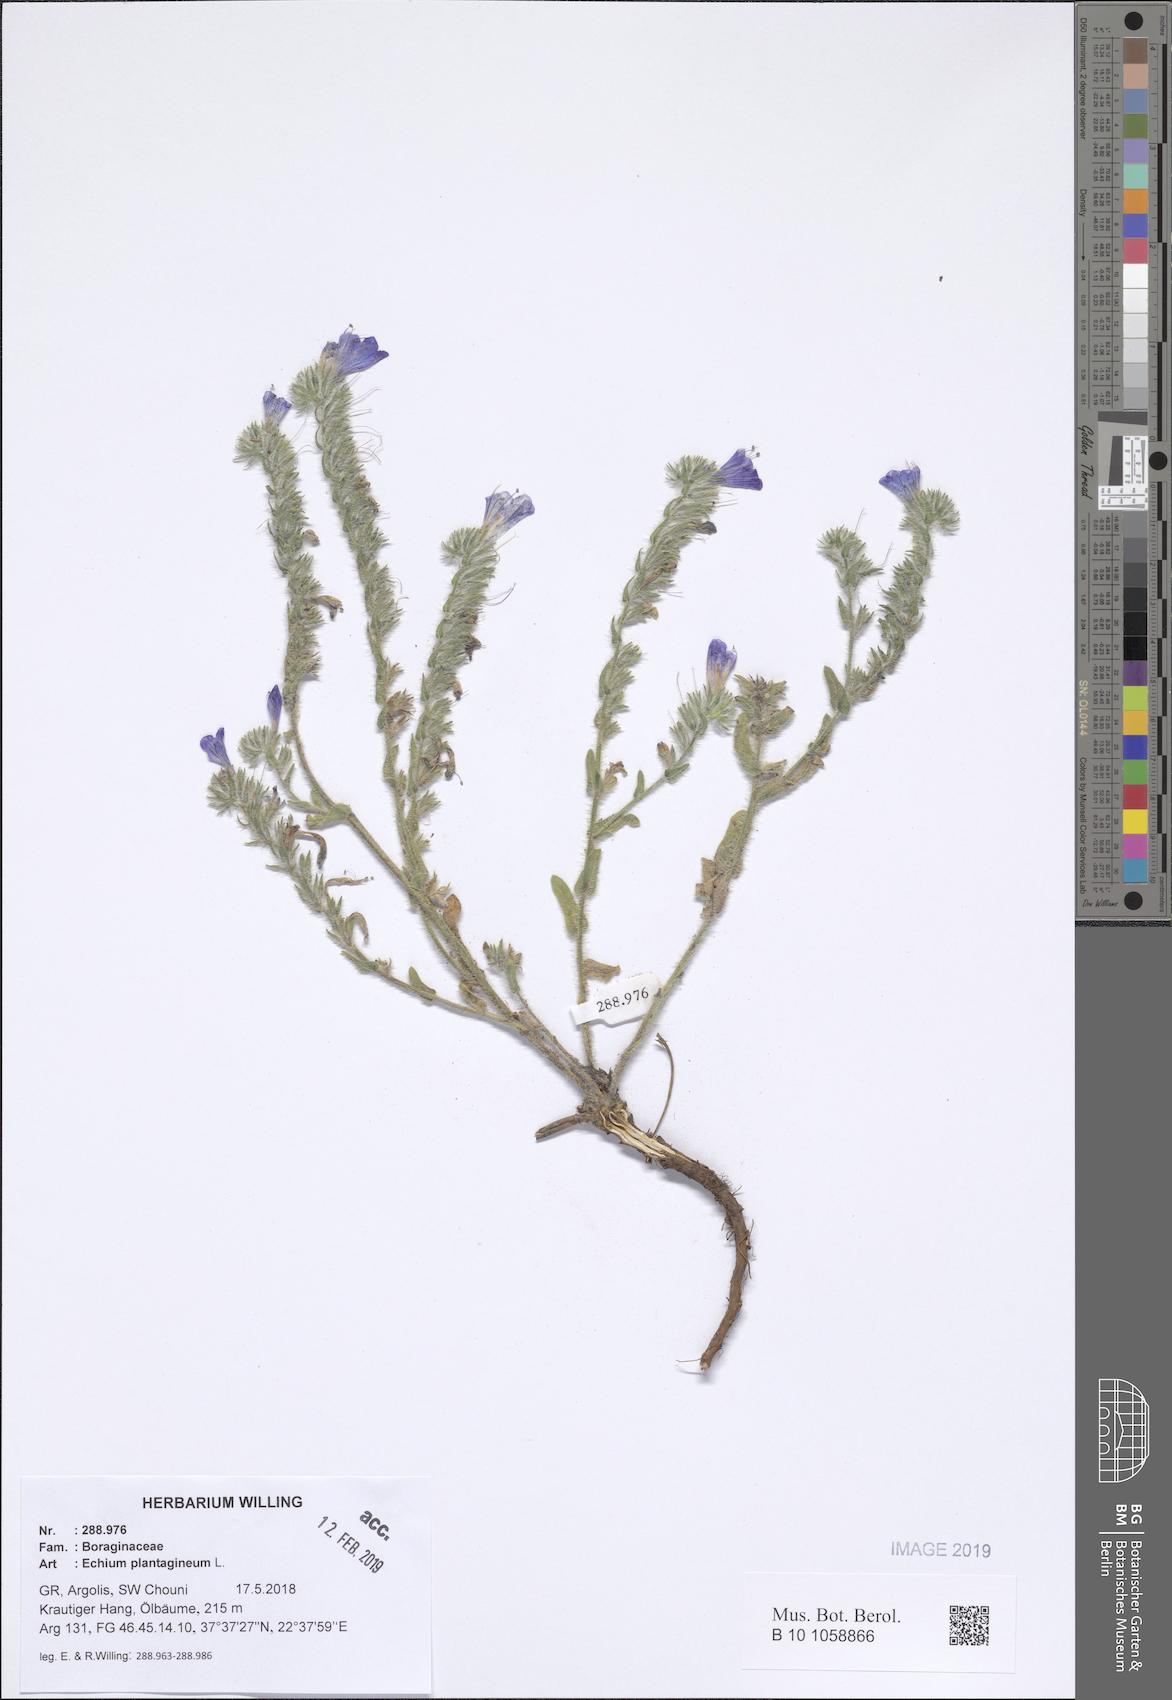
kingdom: Plantae
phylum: Tracheophyta
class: Magnoliopsida
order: Boraginales
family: Boraginaceae
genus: Echium
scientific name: Echium plantagineum
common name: Purple viper's-bugloss
